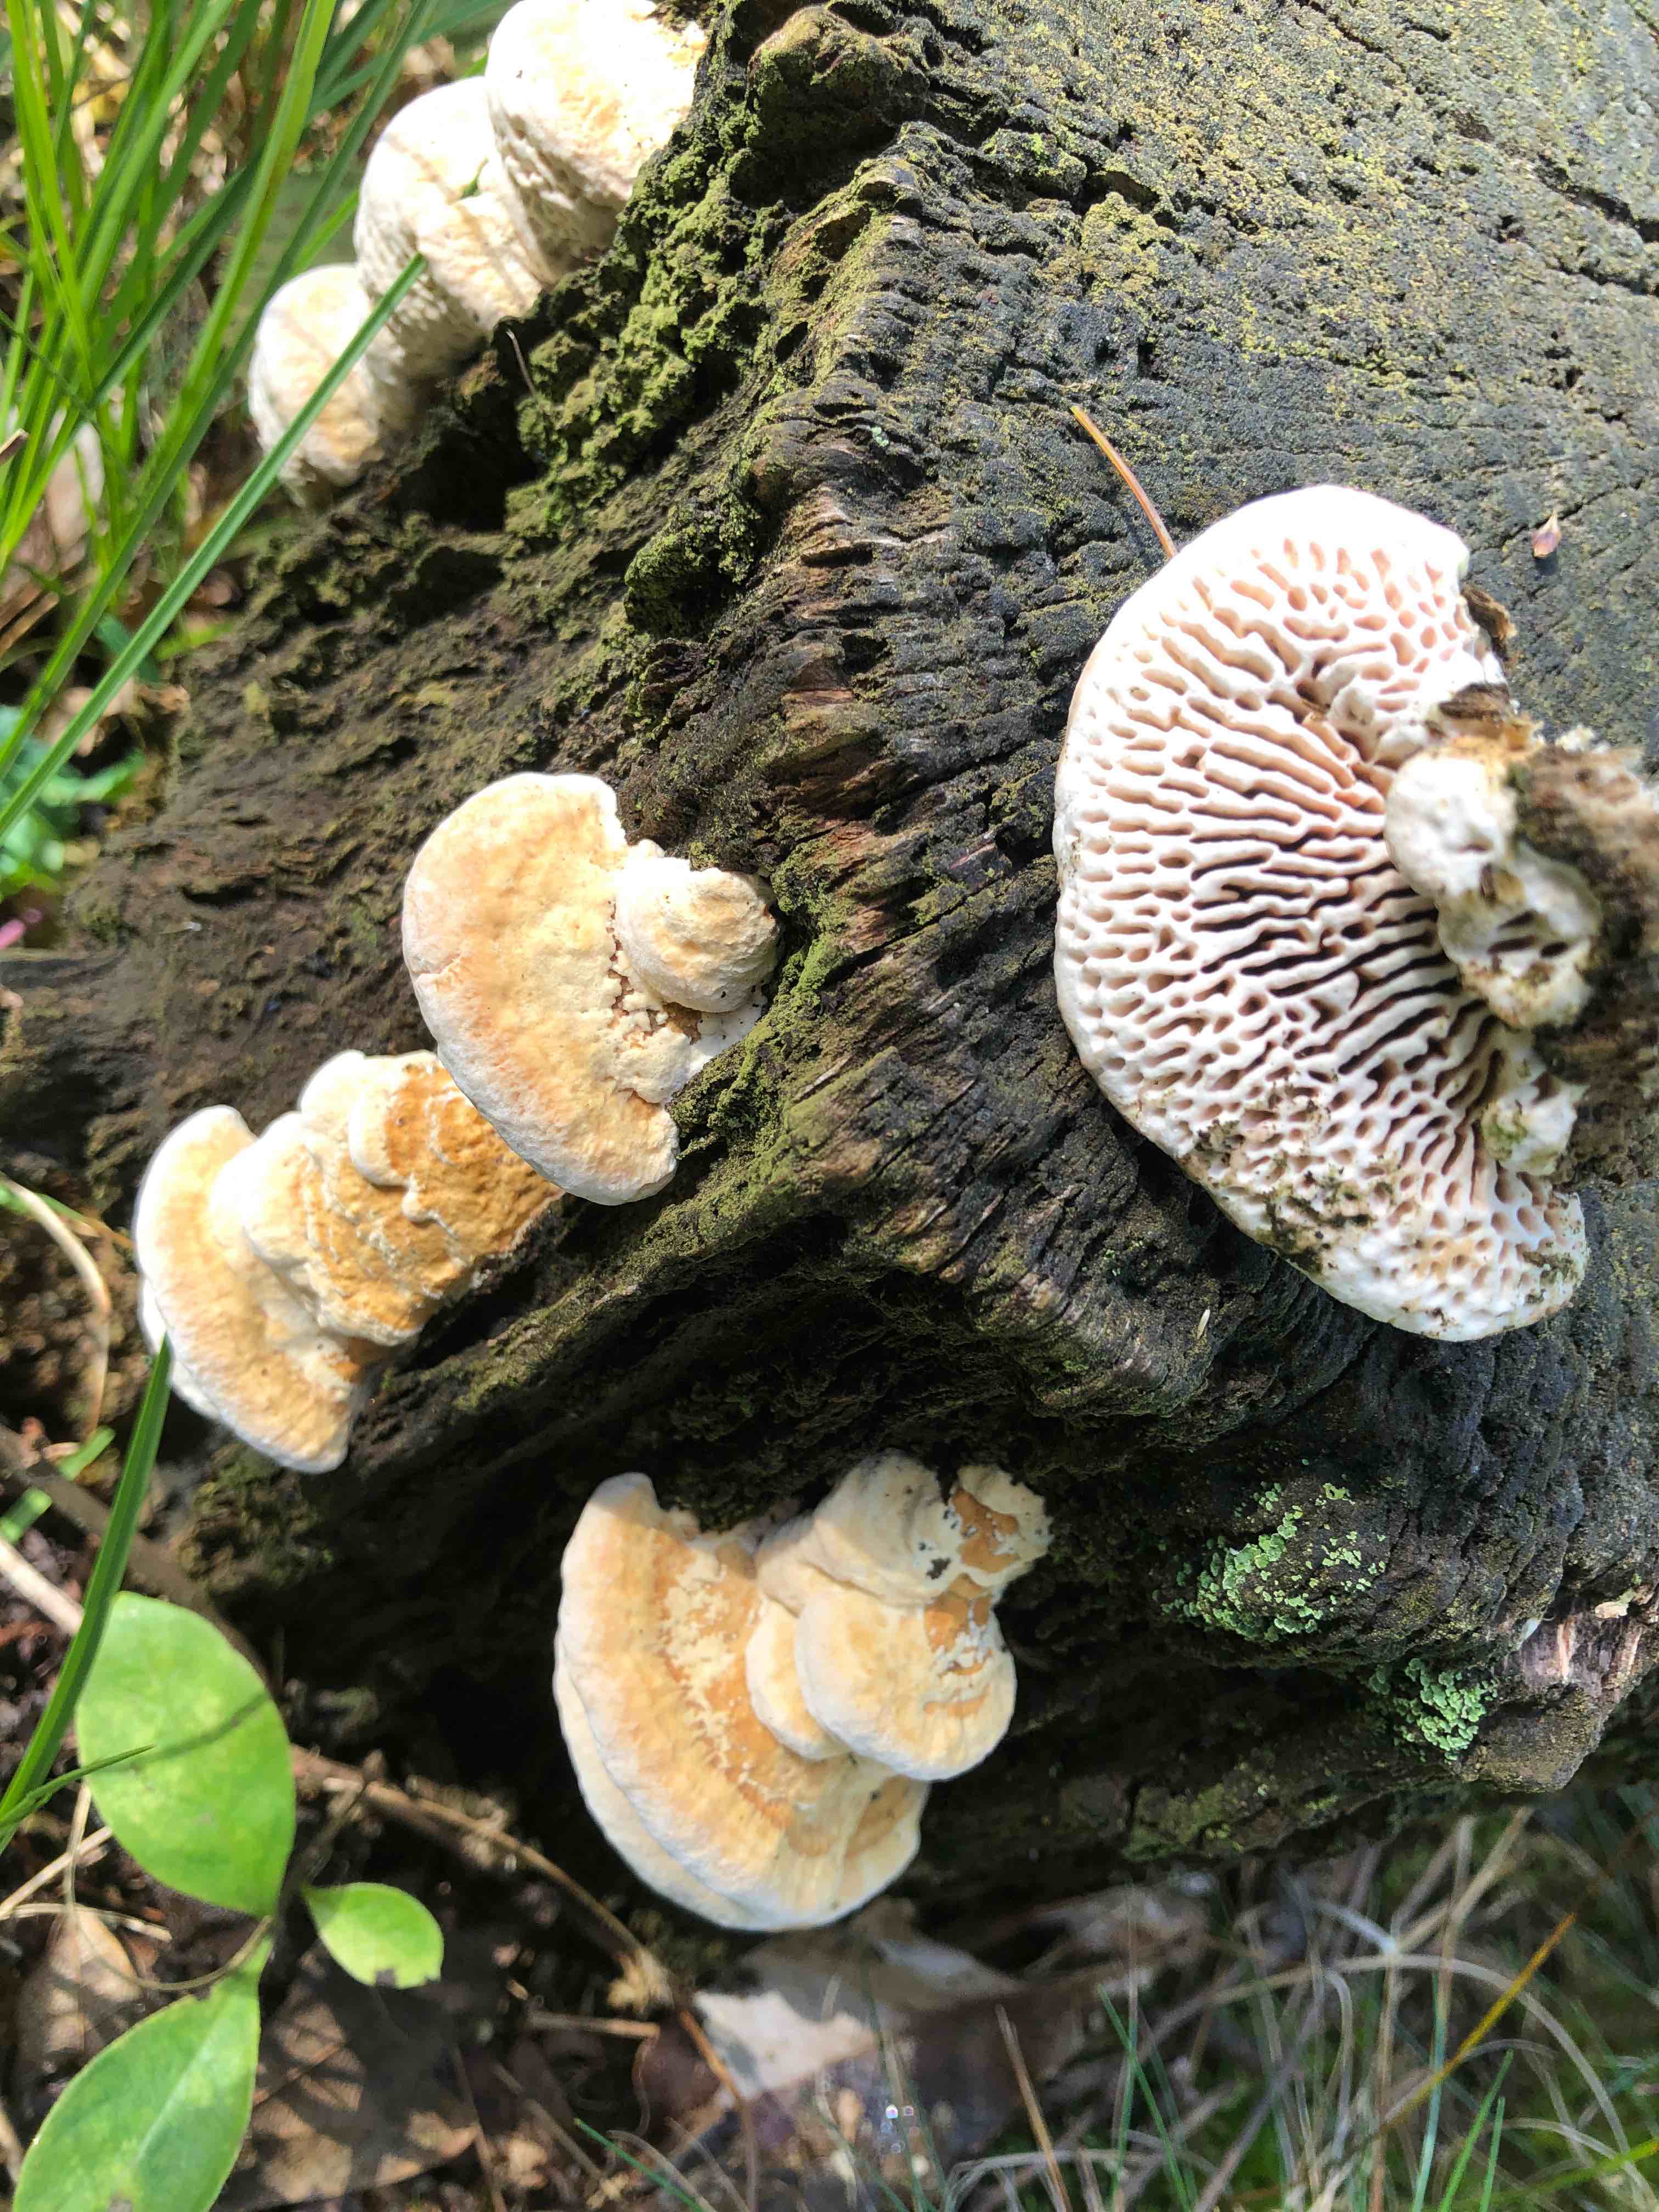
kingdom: Fungi
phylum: Basidiomycota
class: Agaricomycetes
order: Polyporales
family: Fomitopsidaceae
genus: Daedalea
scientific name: Daedalea quercina
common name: ege-labyrintsvamp
